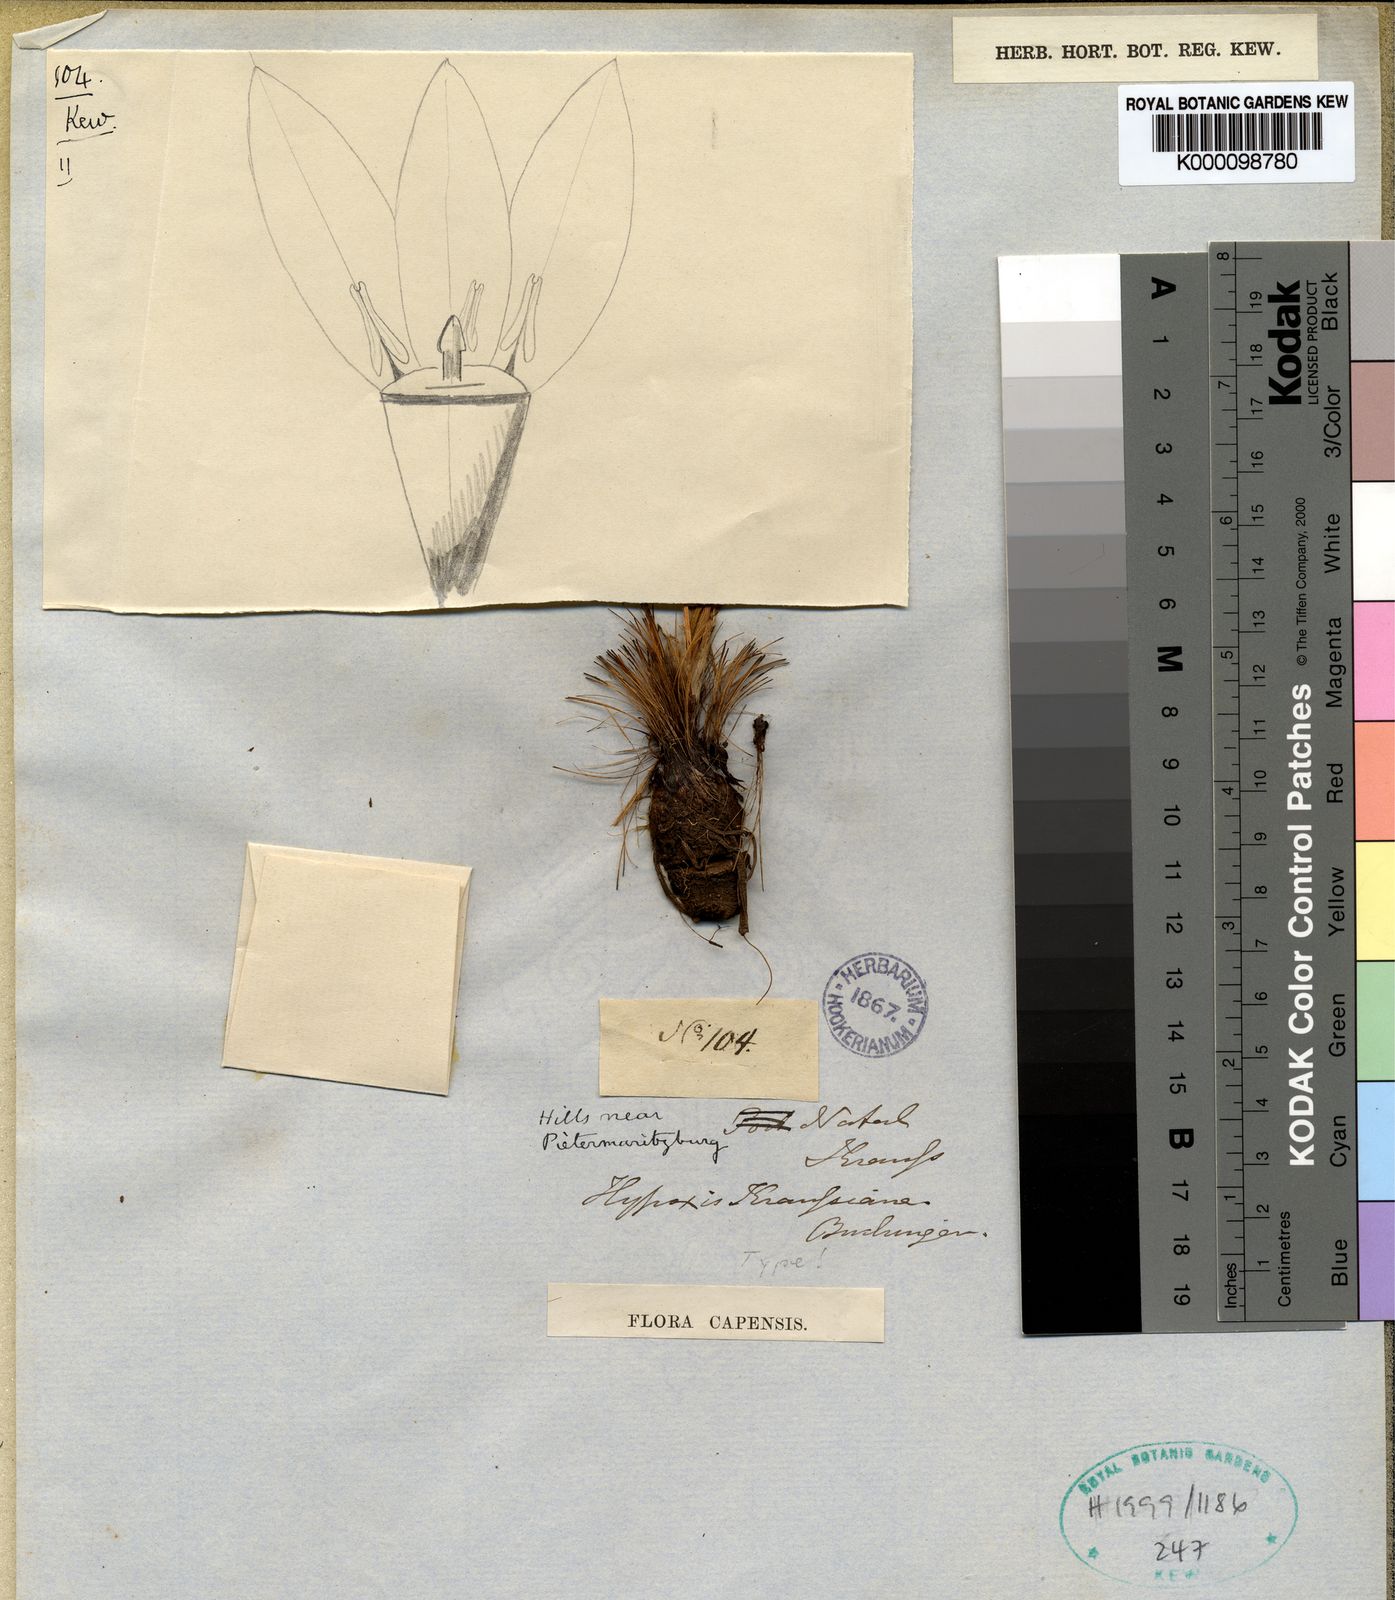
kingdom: Plantae
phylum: Tracheophyta
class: Liliopsida
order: Asparagales
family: Hypoxidaceae
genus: Hypoxis
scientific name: Hypoxis
